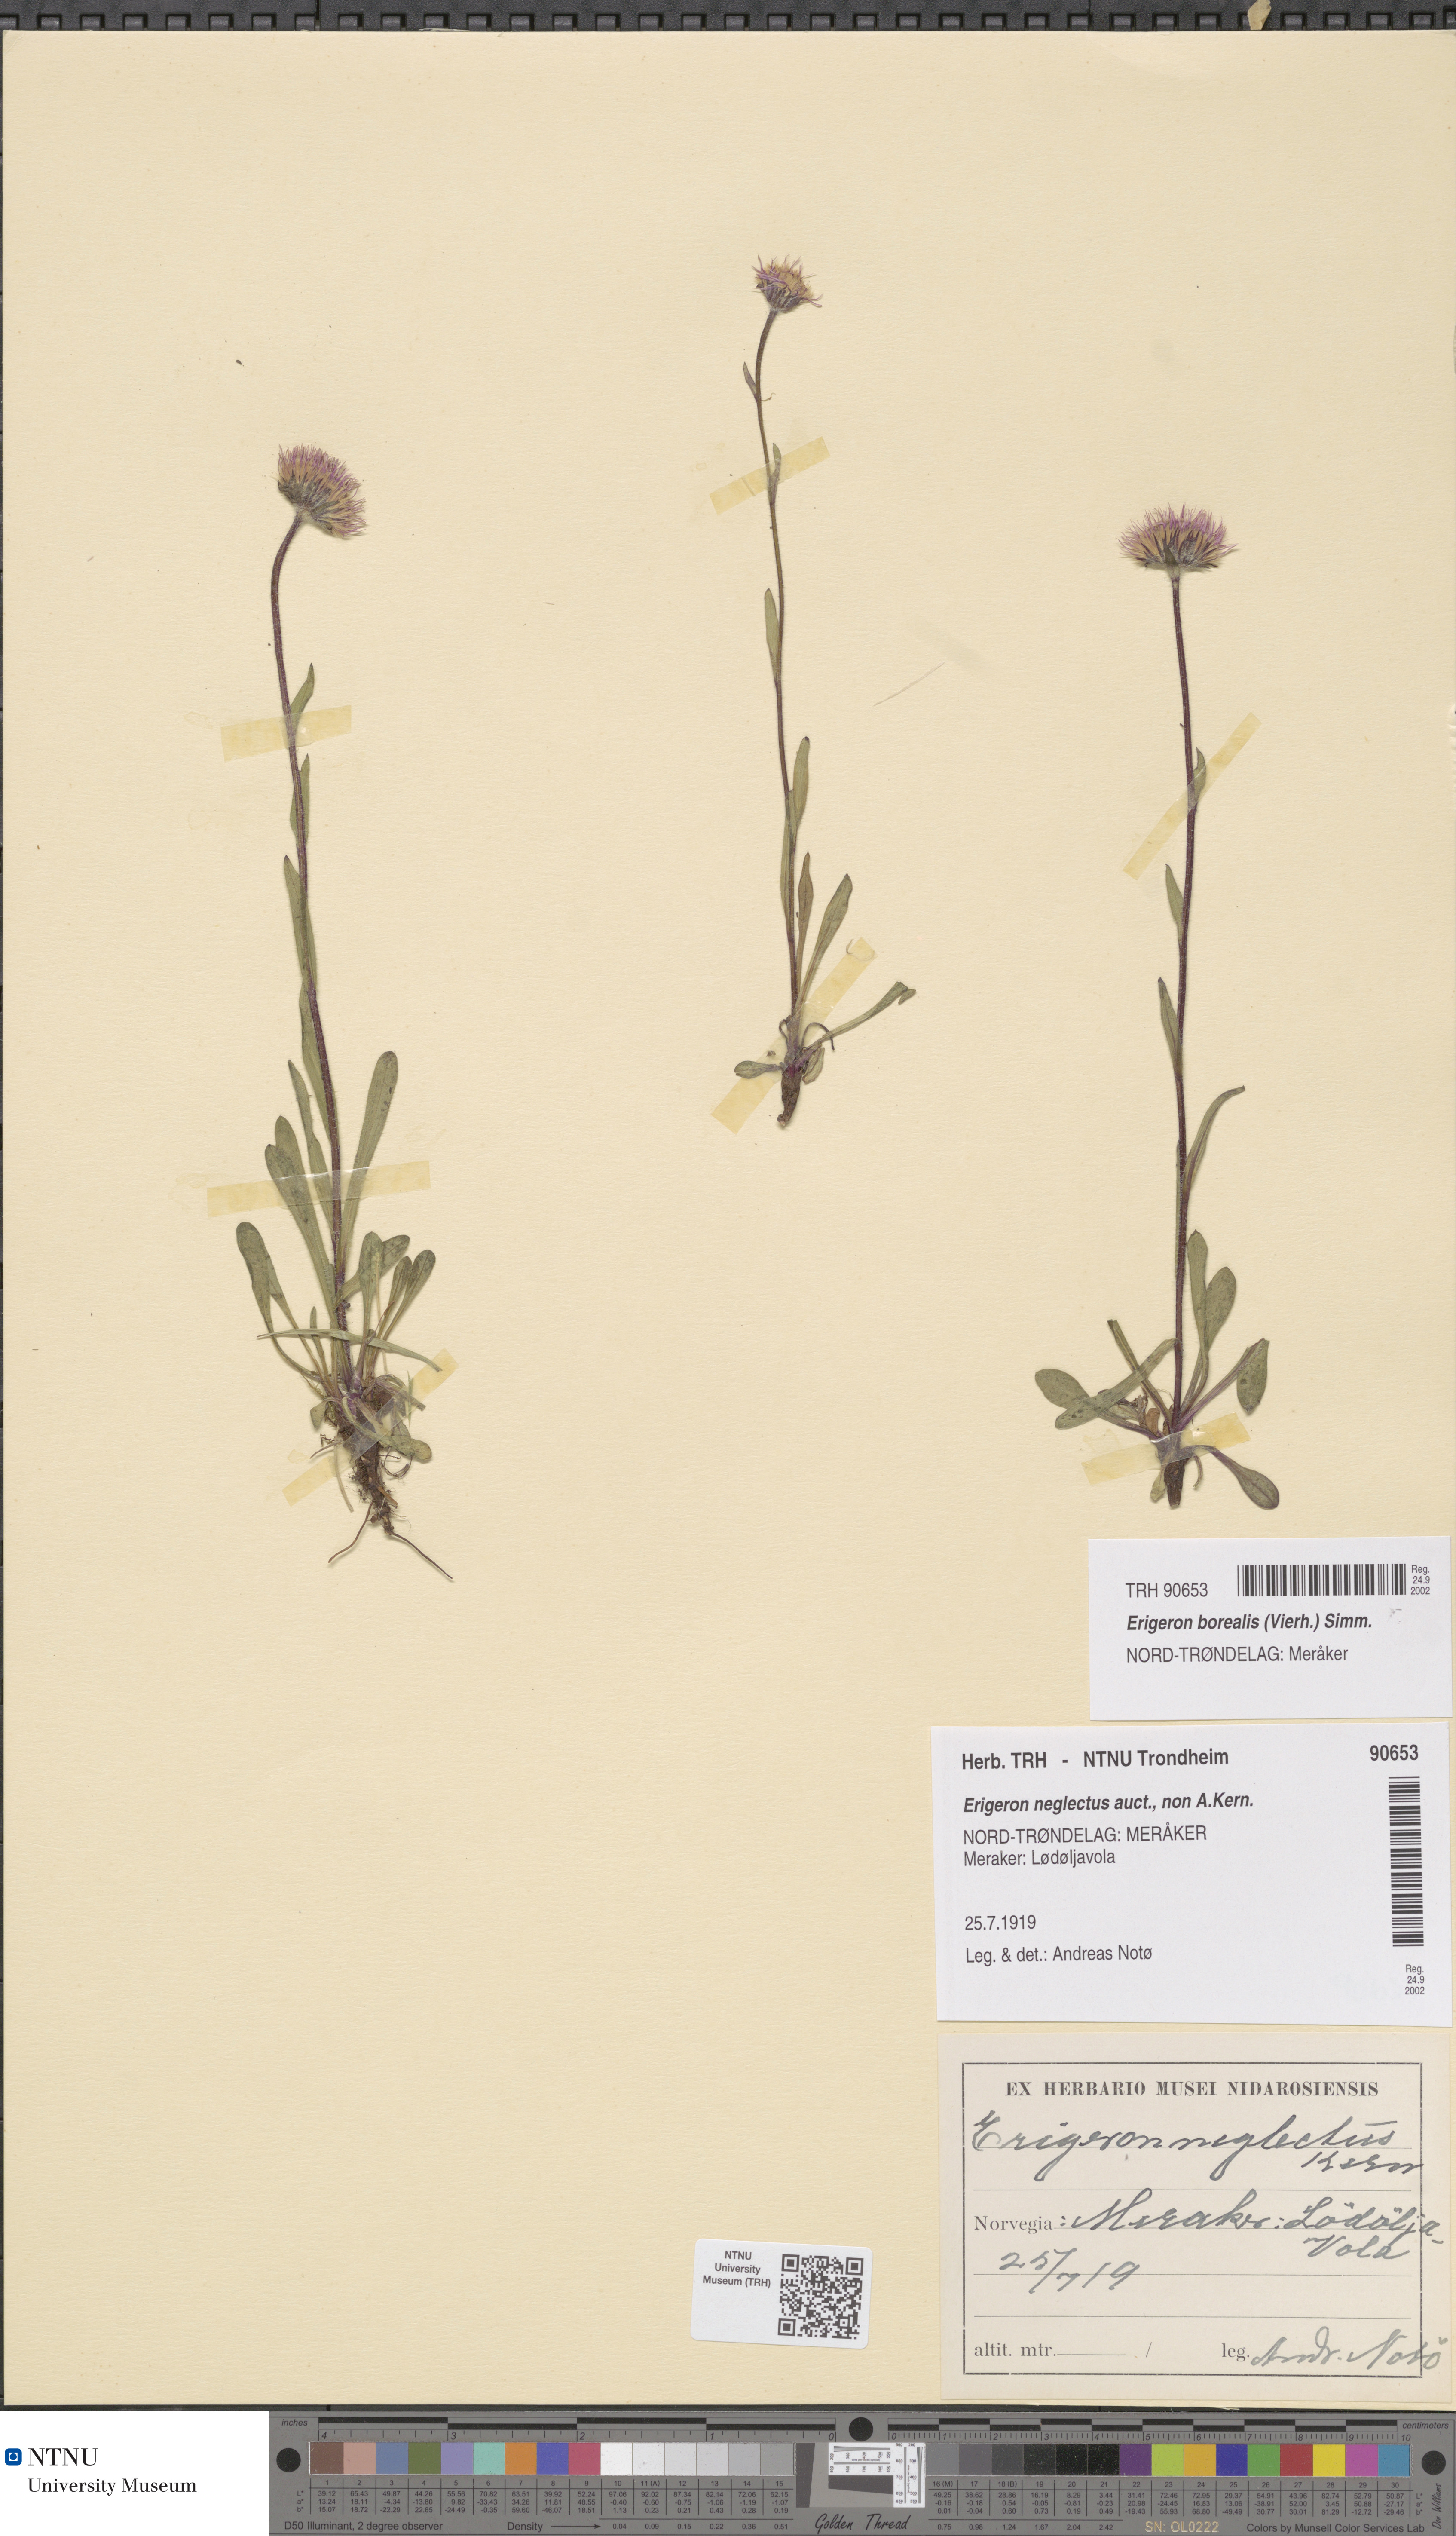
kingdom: Plantae
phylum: Tracheophyta
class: Magnoliopsida
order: Asterales
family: Asteraceae
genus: Erigeron
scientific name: Erigeron borealis
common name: Alpine fleabane
